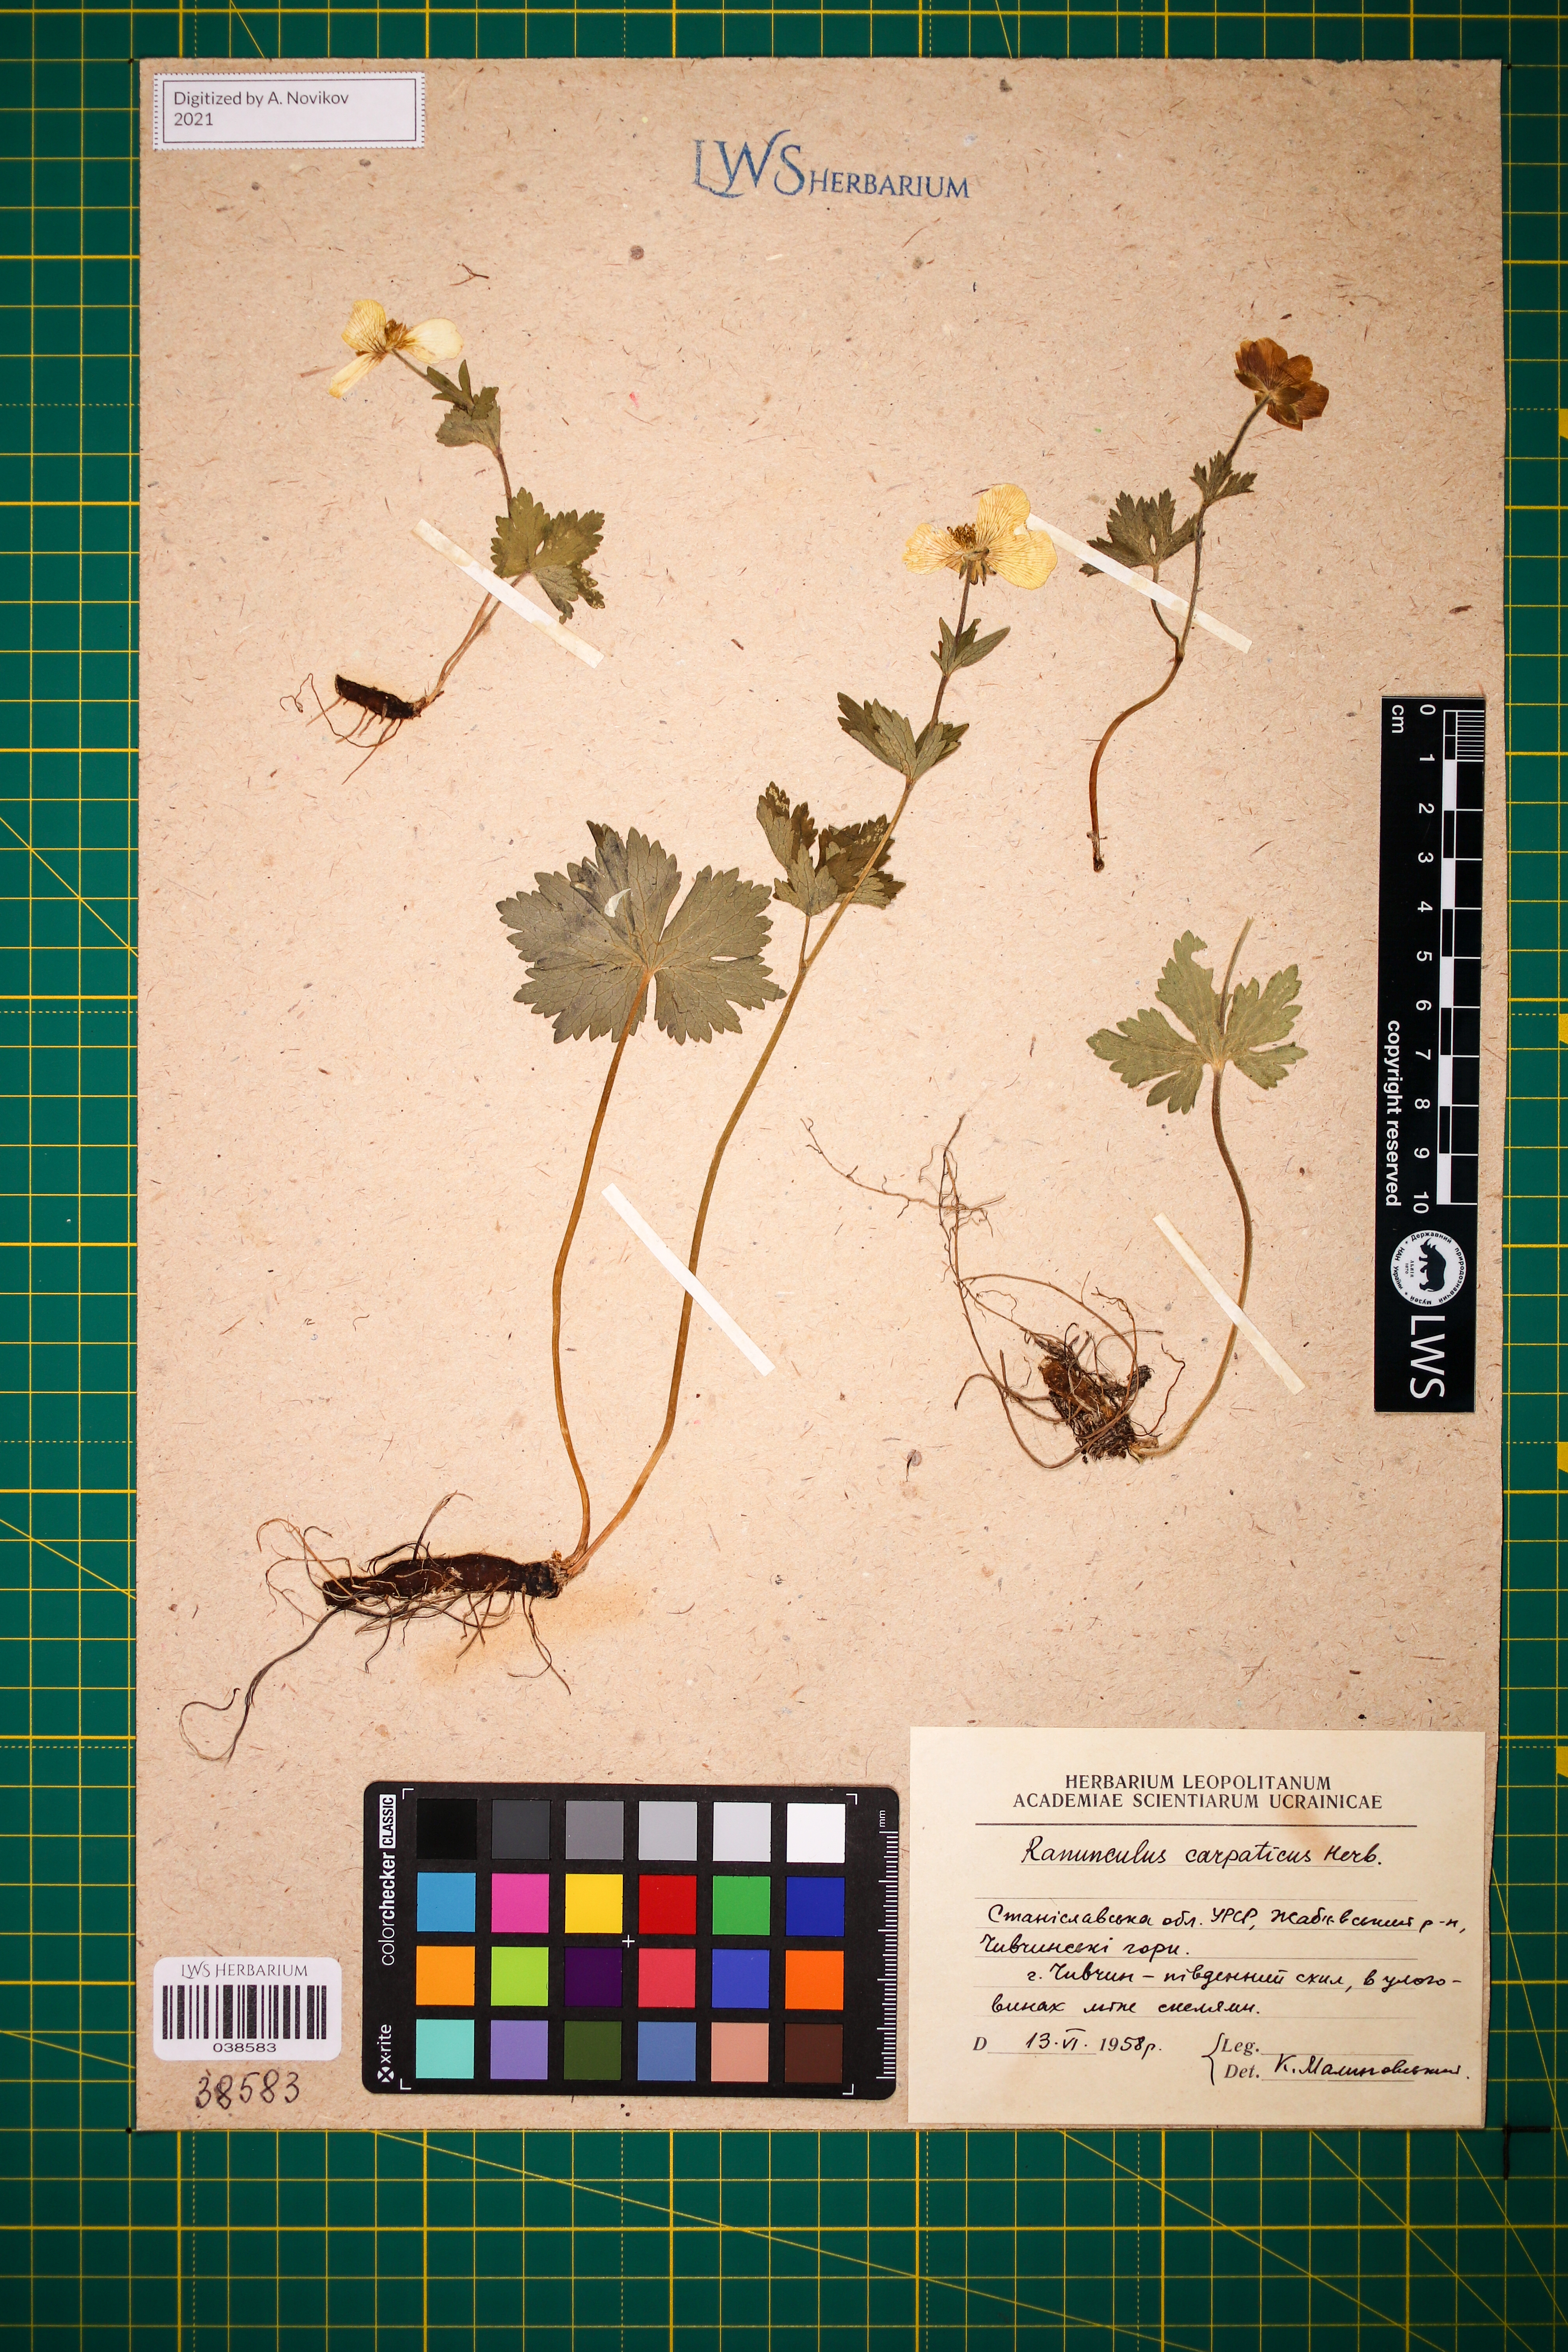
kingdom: Plantae
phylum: Tracheophyta
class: Magnoliopsida
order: Ranunculales
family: Ranunculaceae
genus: Ranunculus
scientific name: Ranunculus carpaticus
